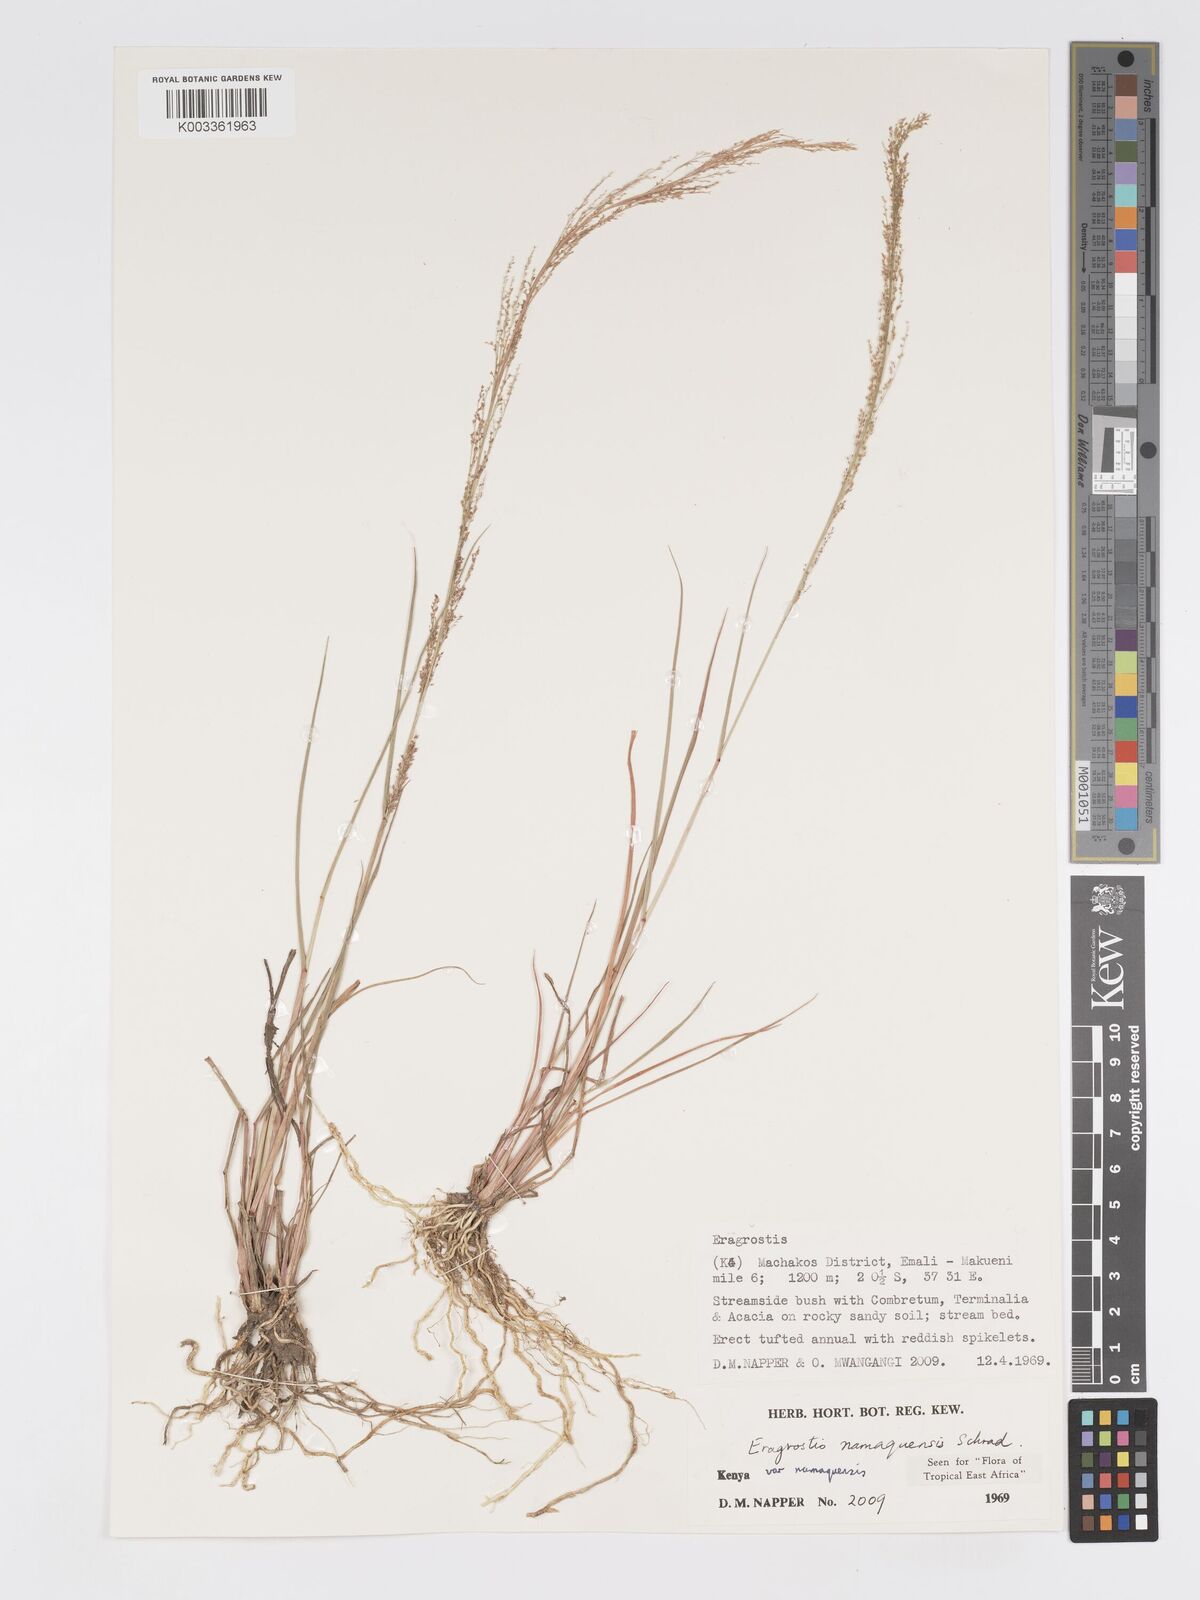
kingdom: Plantae
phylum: Tracheophyta
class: Liliopsida
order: Poales
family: Poaceae
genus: Eragrostis
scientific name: Eragrostis japonica
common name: Pond lovegrass
